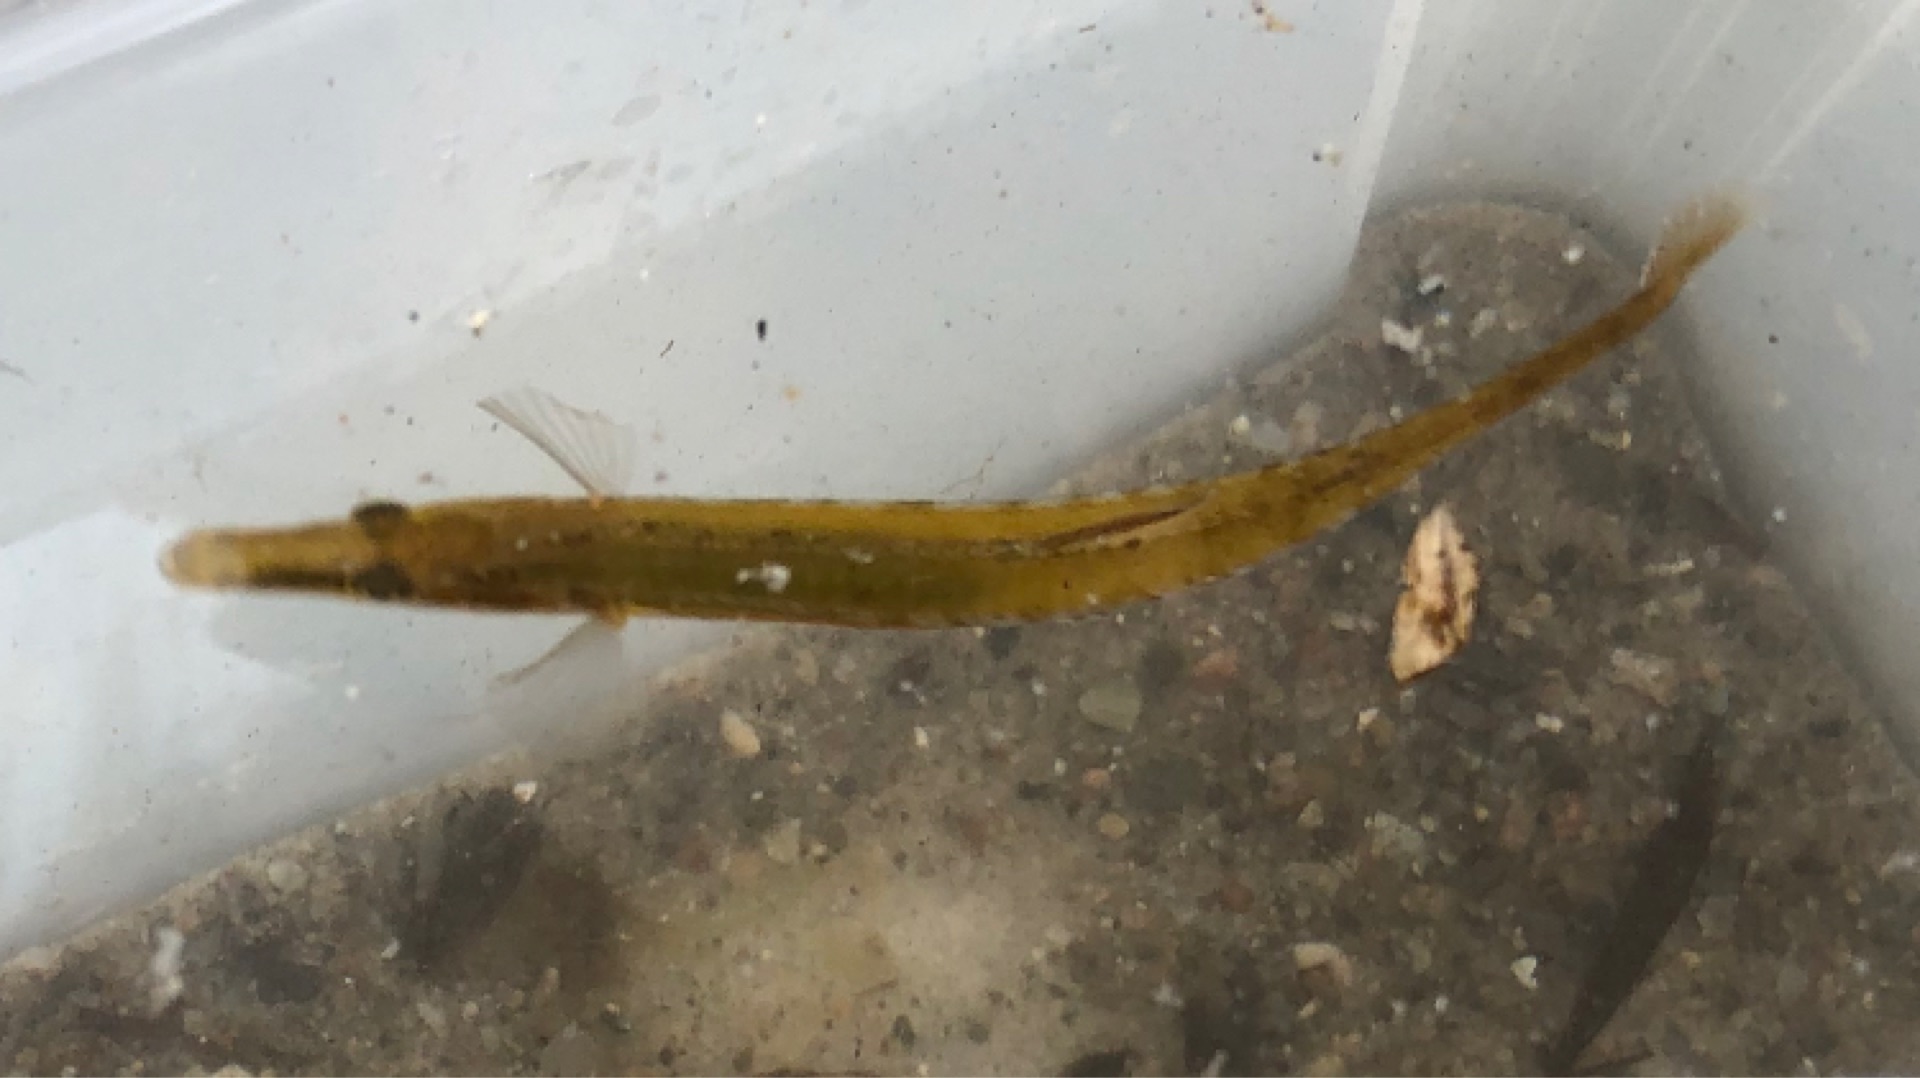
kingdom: Animalia
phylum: Chordata
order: Gasterosteiformes
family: Gasterosteidae
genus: Spinachia
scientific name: Spinachia spinachia
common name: Tangsnarre
